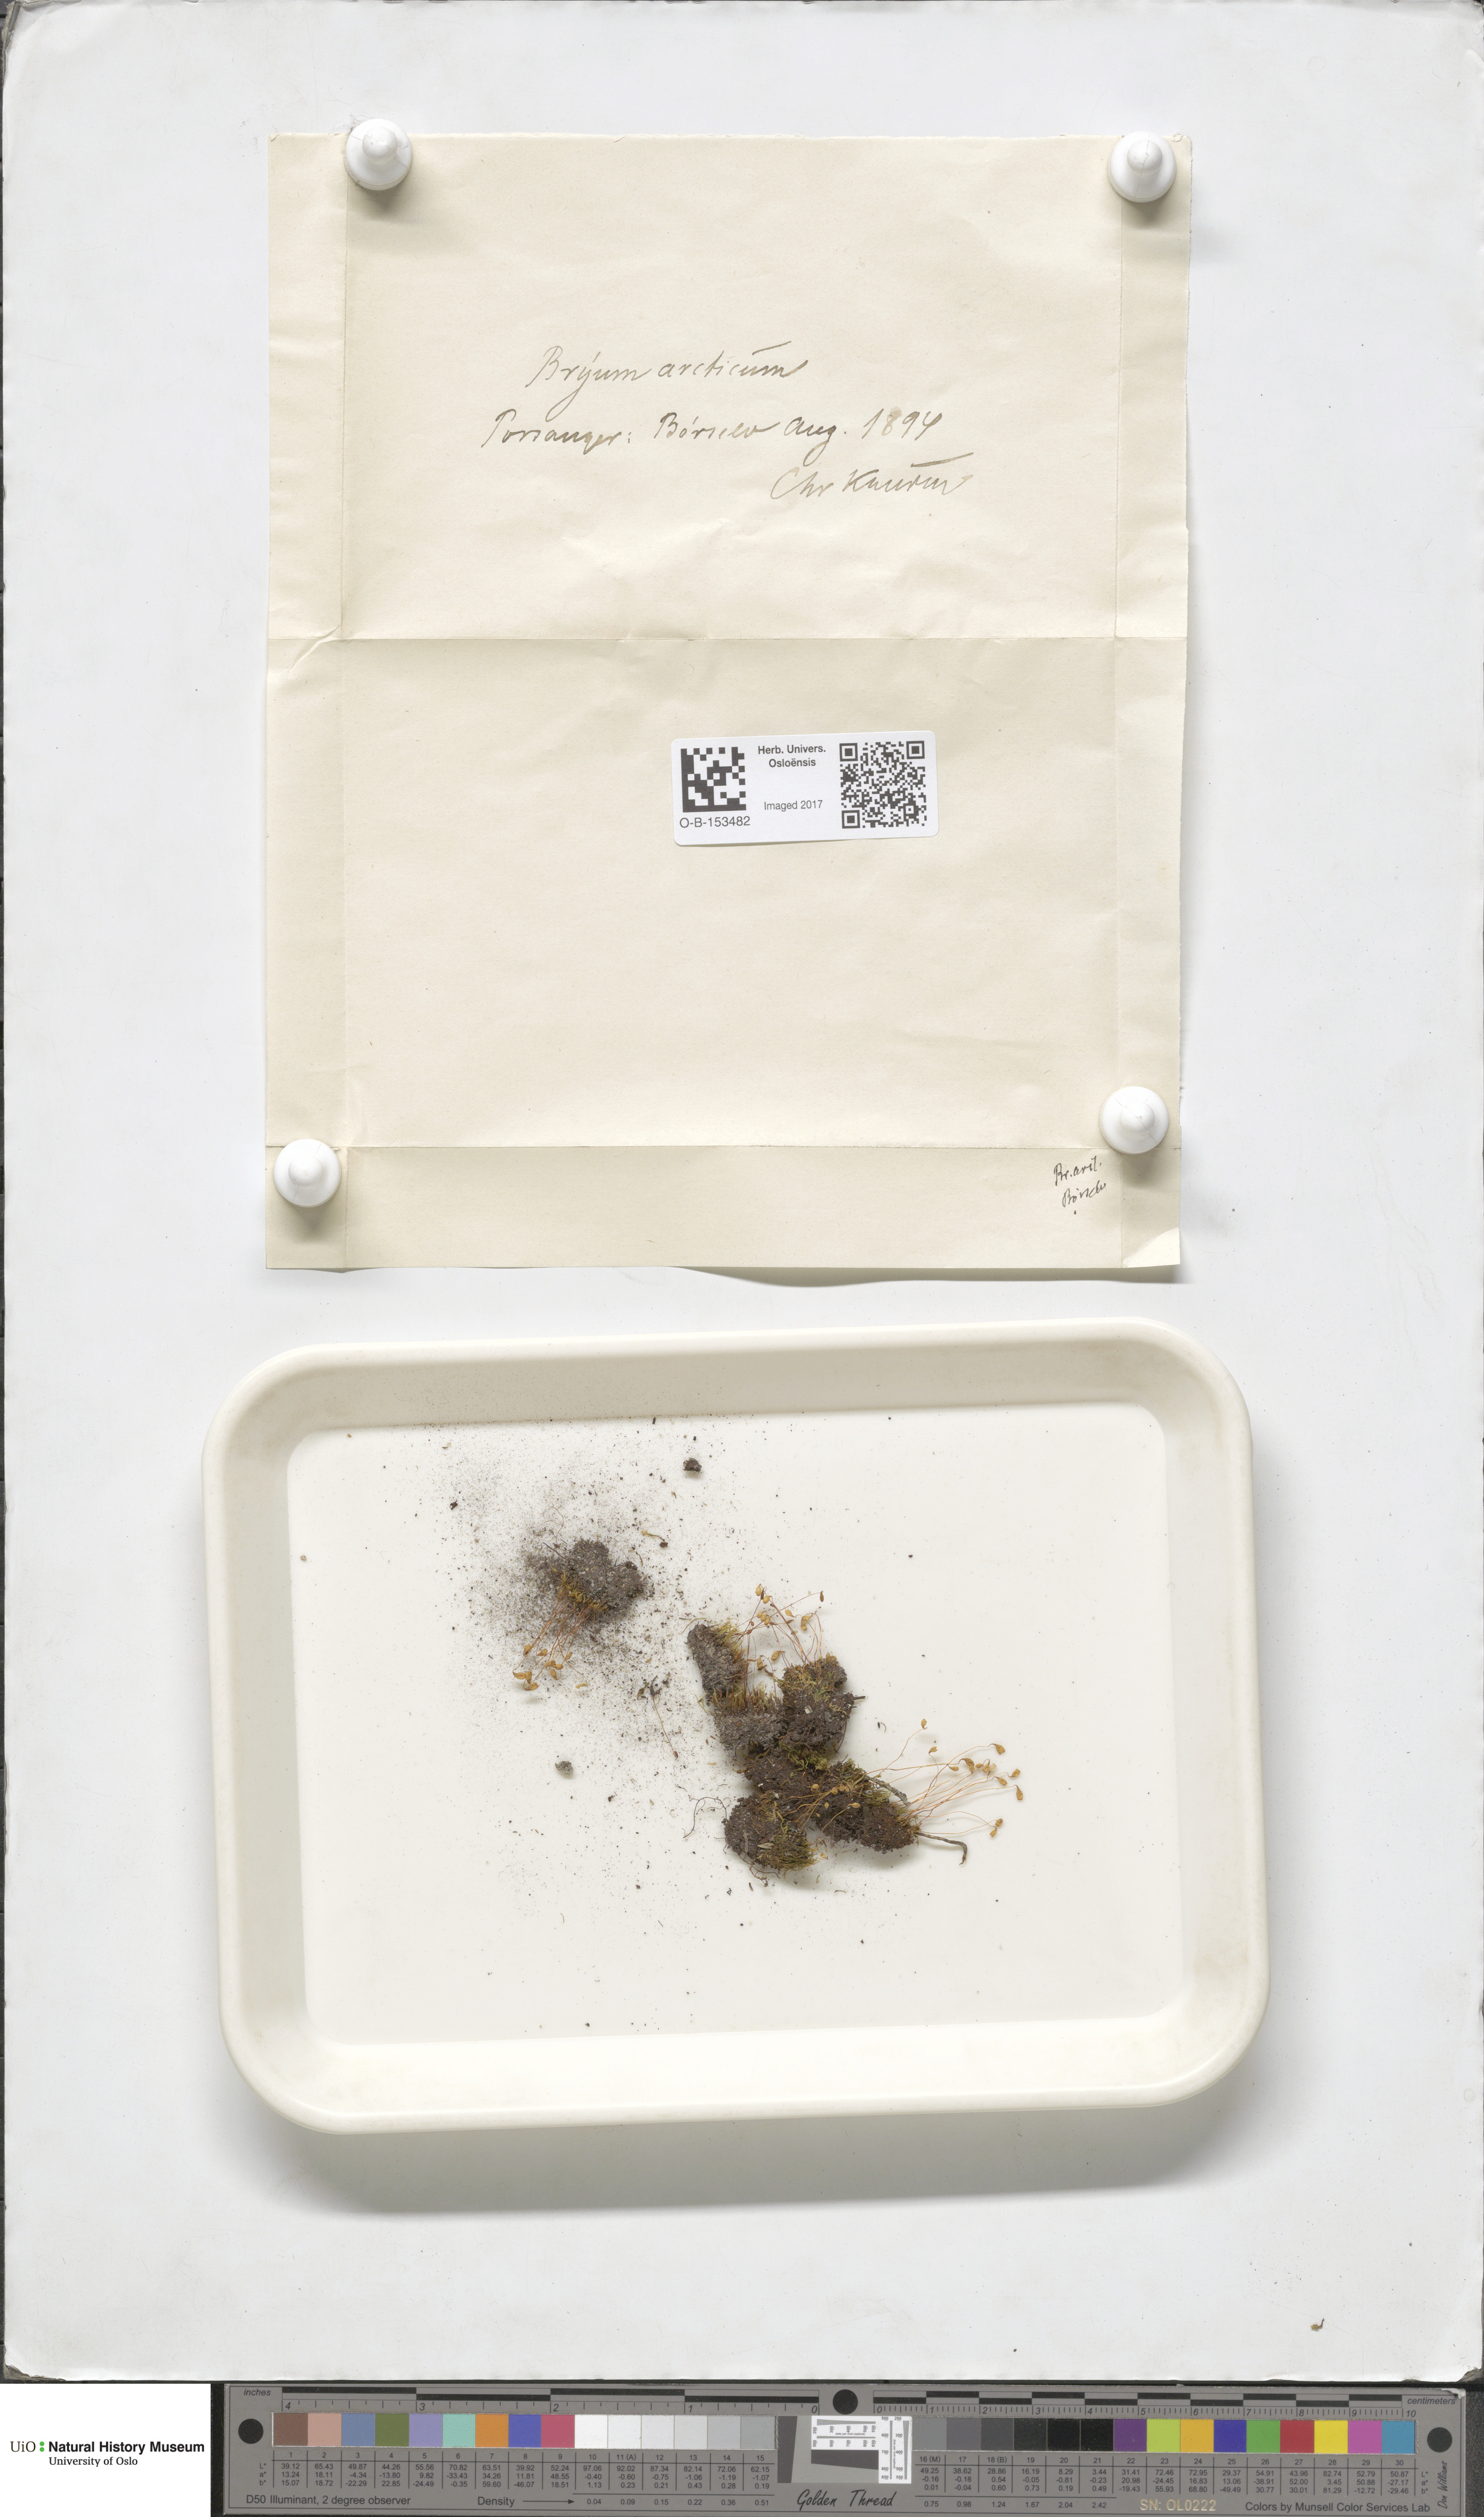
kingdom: Plantae
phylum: Bryophyta
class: Bryopsida
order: Bryales
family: Bryaceae
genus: Ptychostomum
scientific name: Ptychostomum arcticum
